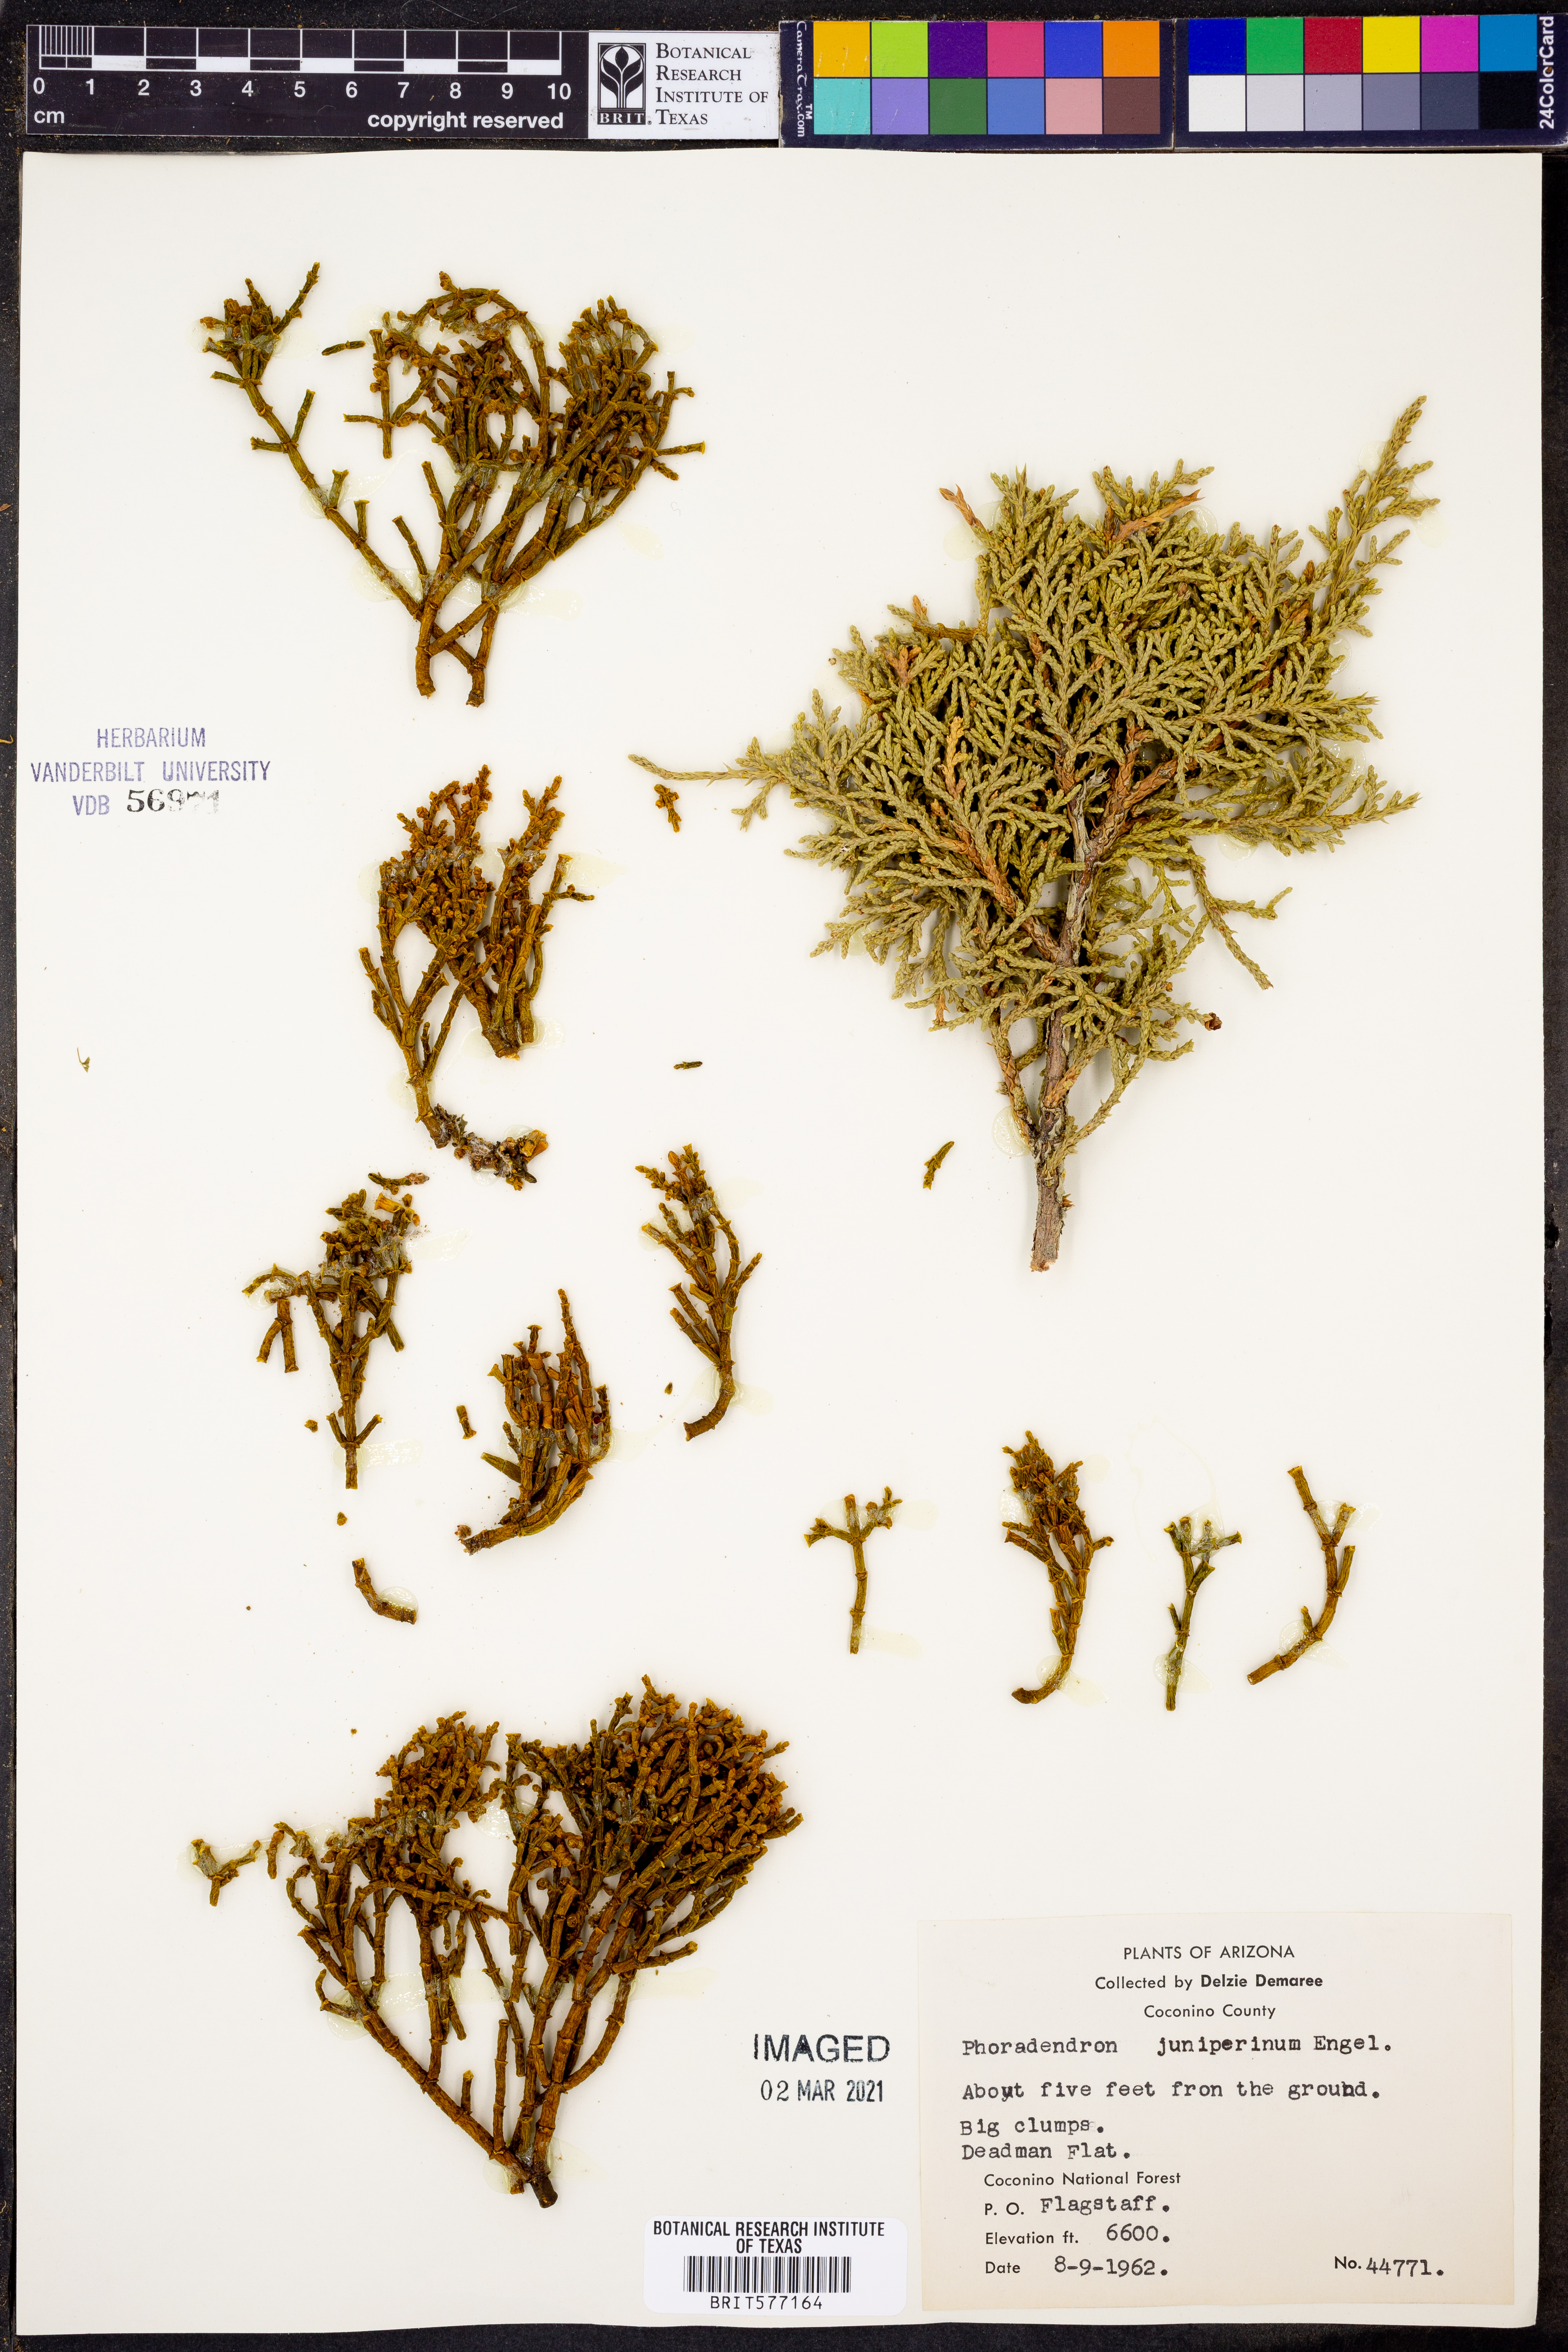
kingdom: Plantae
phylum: Tracheophyta
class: Magnoliopsida
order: Santalales
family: Viscaceae
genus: Phoradendron
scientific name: Phoradendron juniperinum
